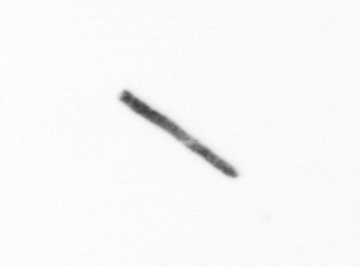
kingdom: Chromista
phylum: Ochrophyta
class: Bacillariophyceae
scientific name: Bacillariophyceae
